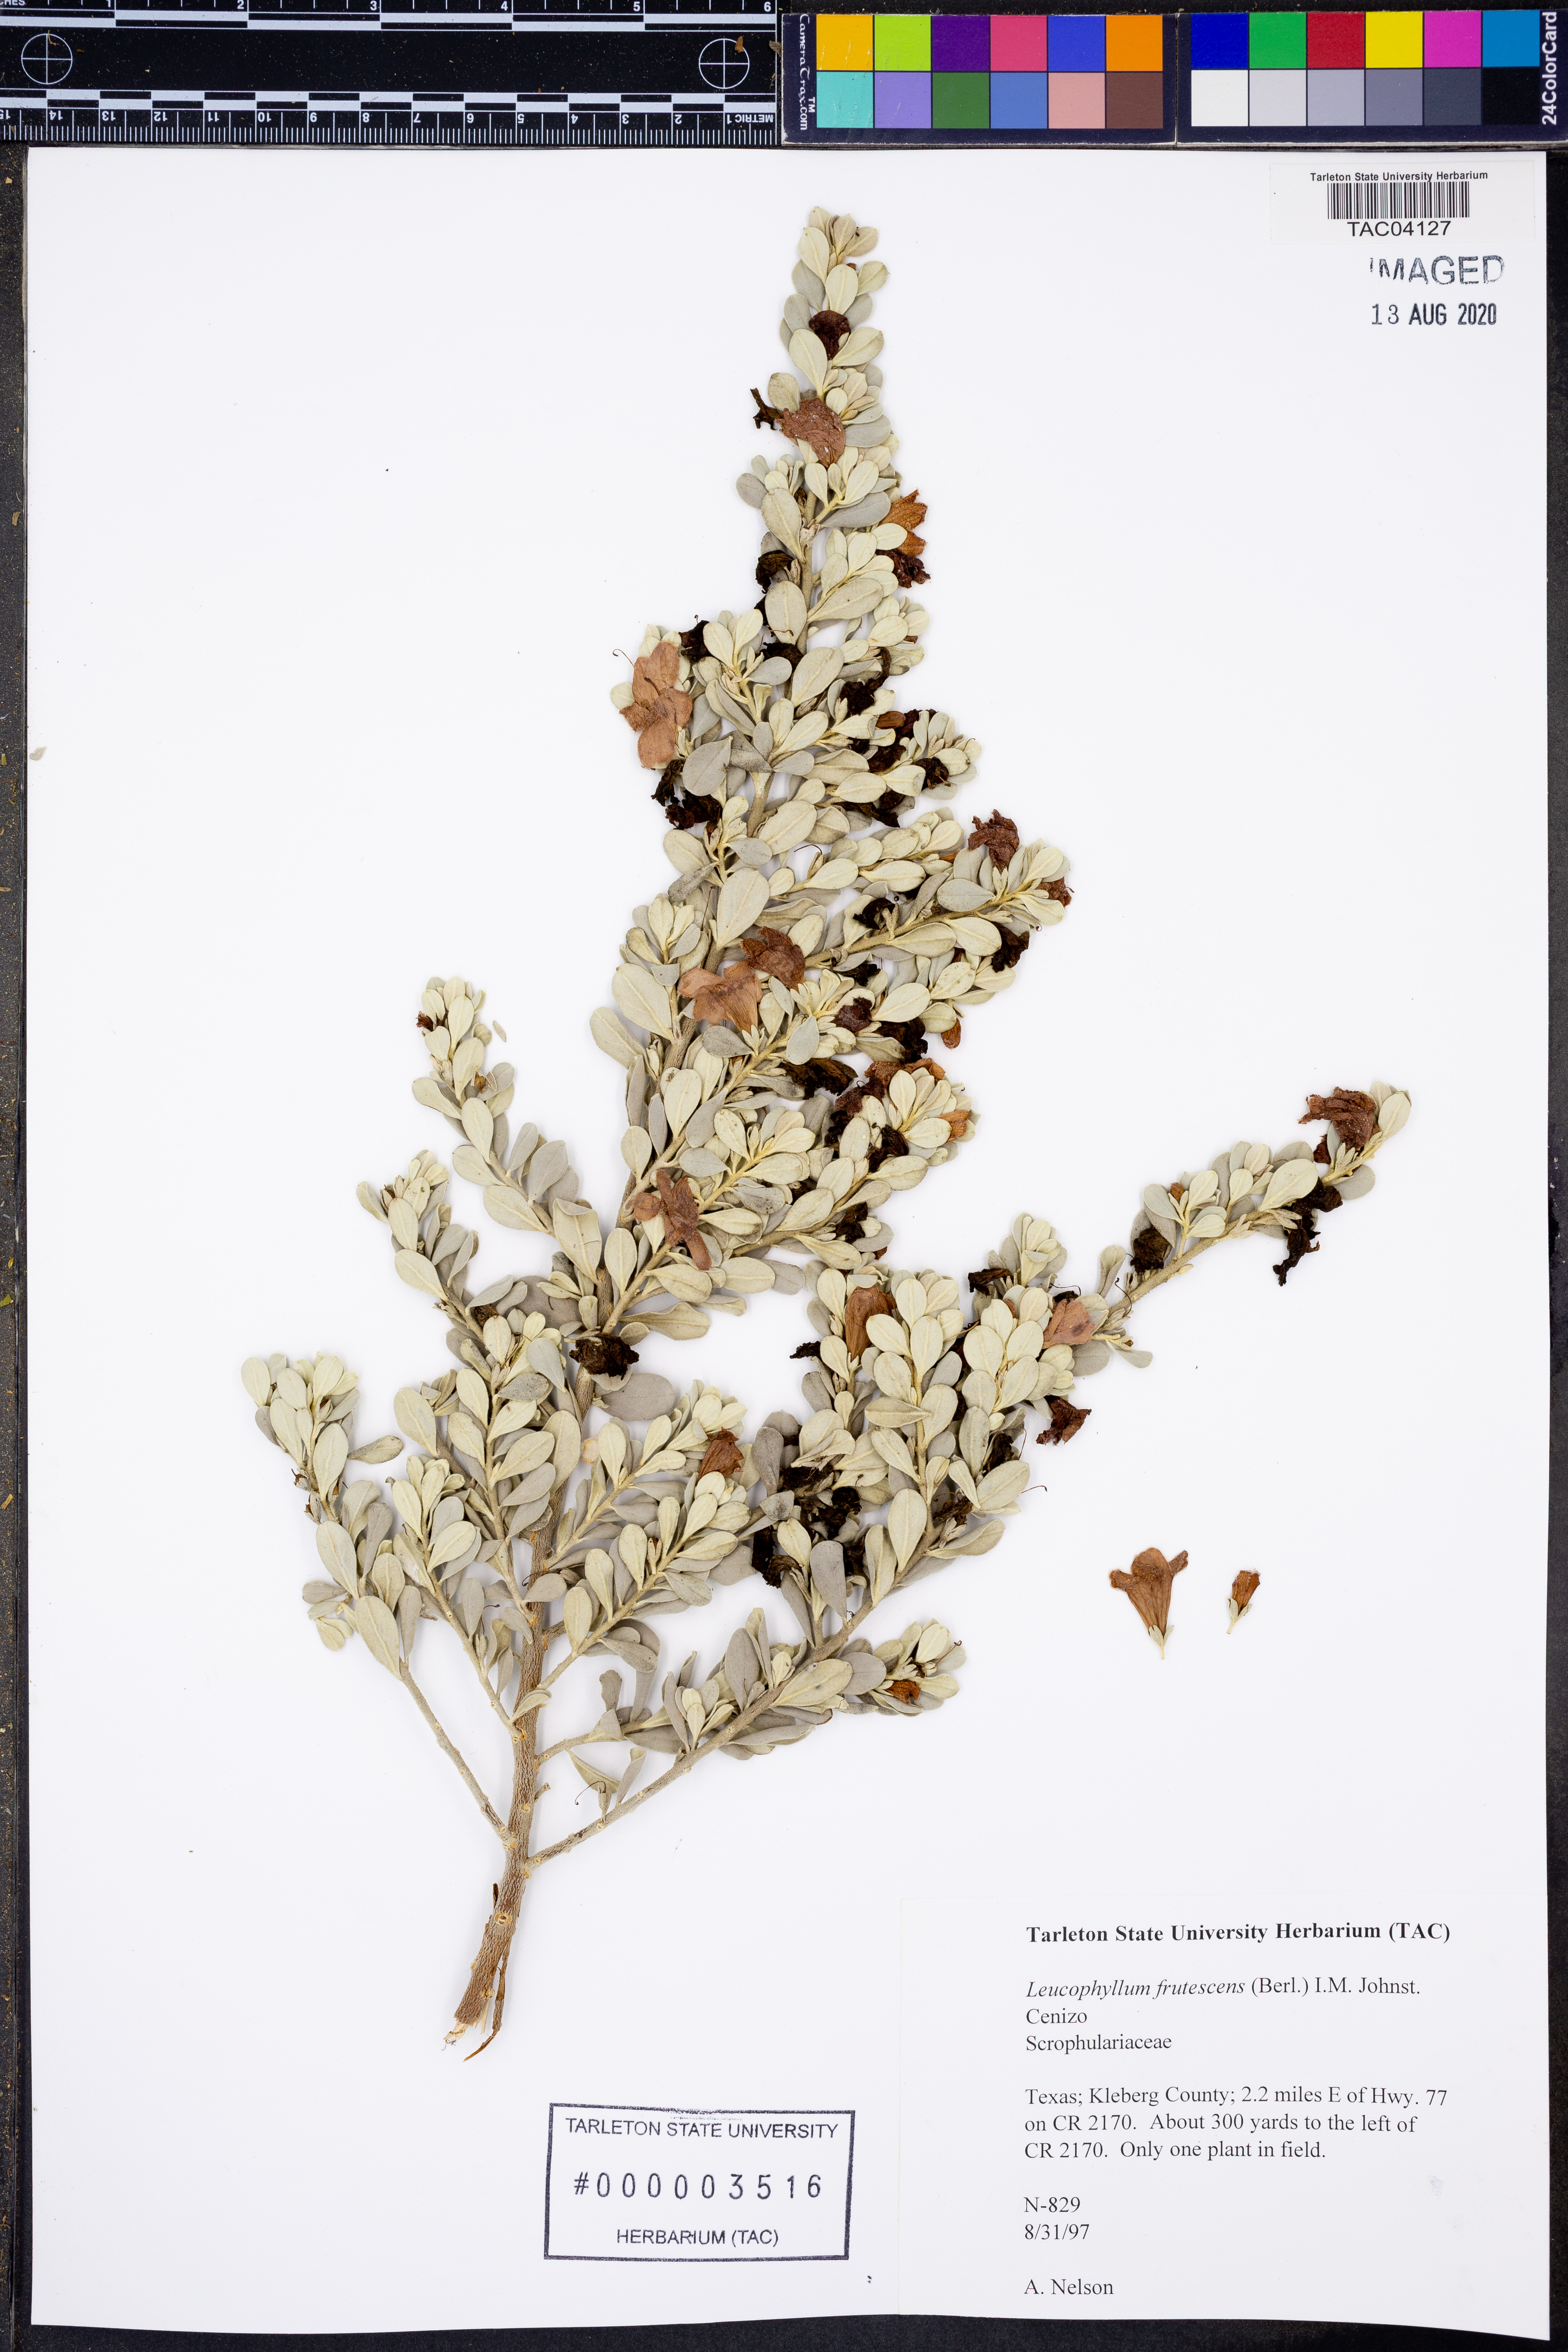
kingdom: Plantae
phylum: Tracheophyta
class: Magnoliopsida
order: Lamiales
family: Scrophulariaceae
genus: Leucophyllum
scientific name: Leucophyllum frutescens
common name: Texas silverleaf
